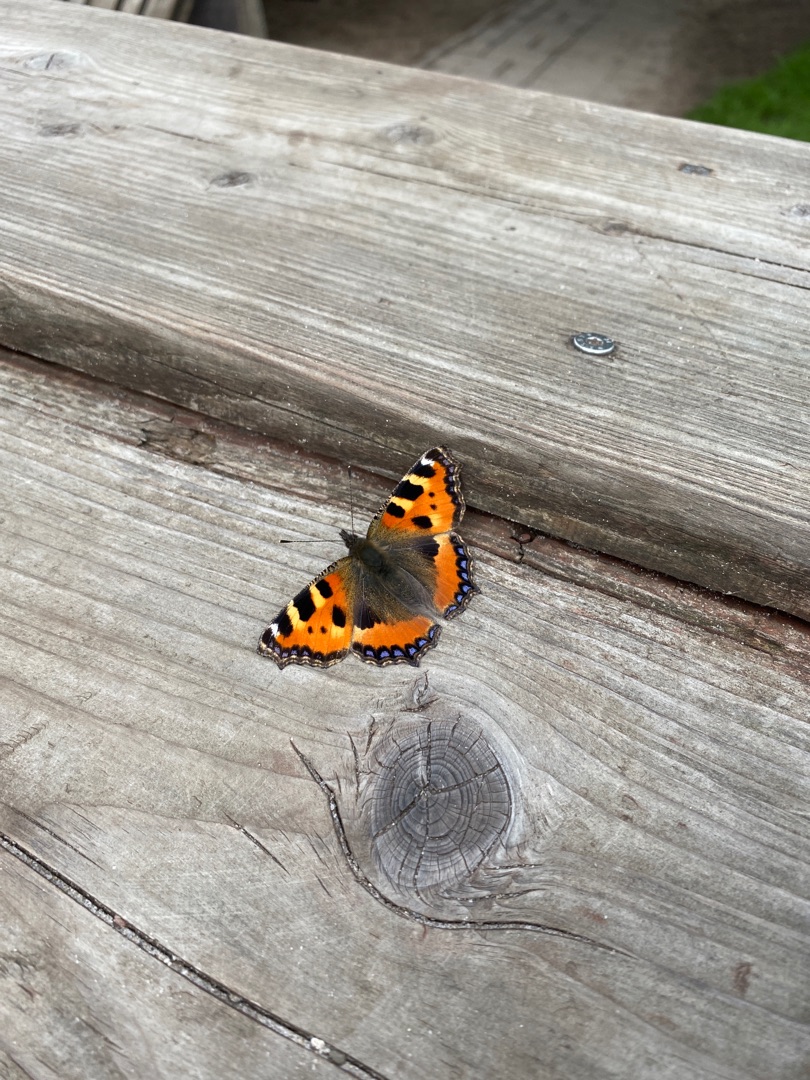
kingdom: Animalia
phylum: Arthropoda
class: Insecta
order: Lepidoptera
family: Nymphalidae
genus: Aglais
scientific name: Aglais urticae
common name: Nældens takvinge
